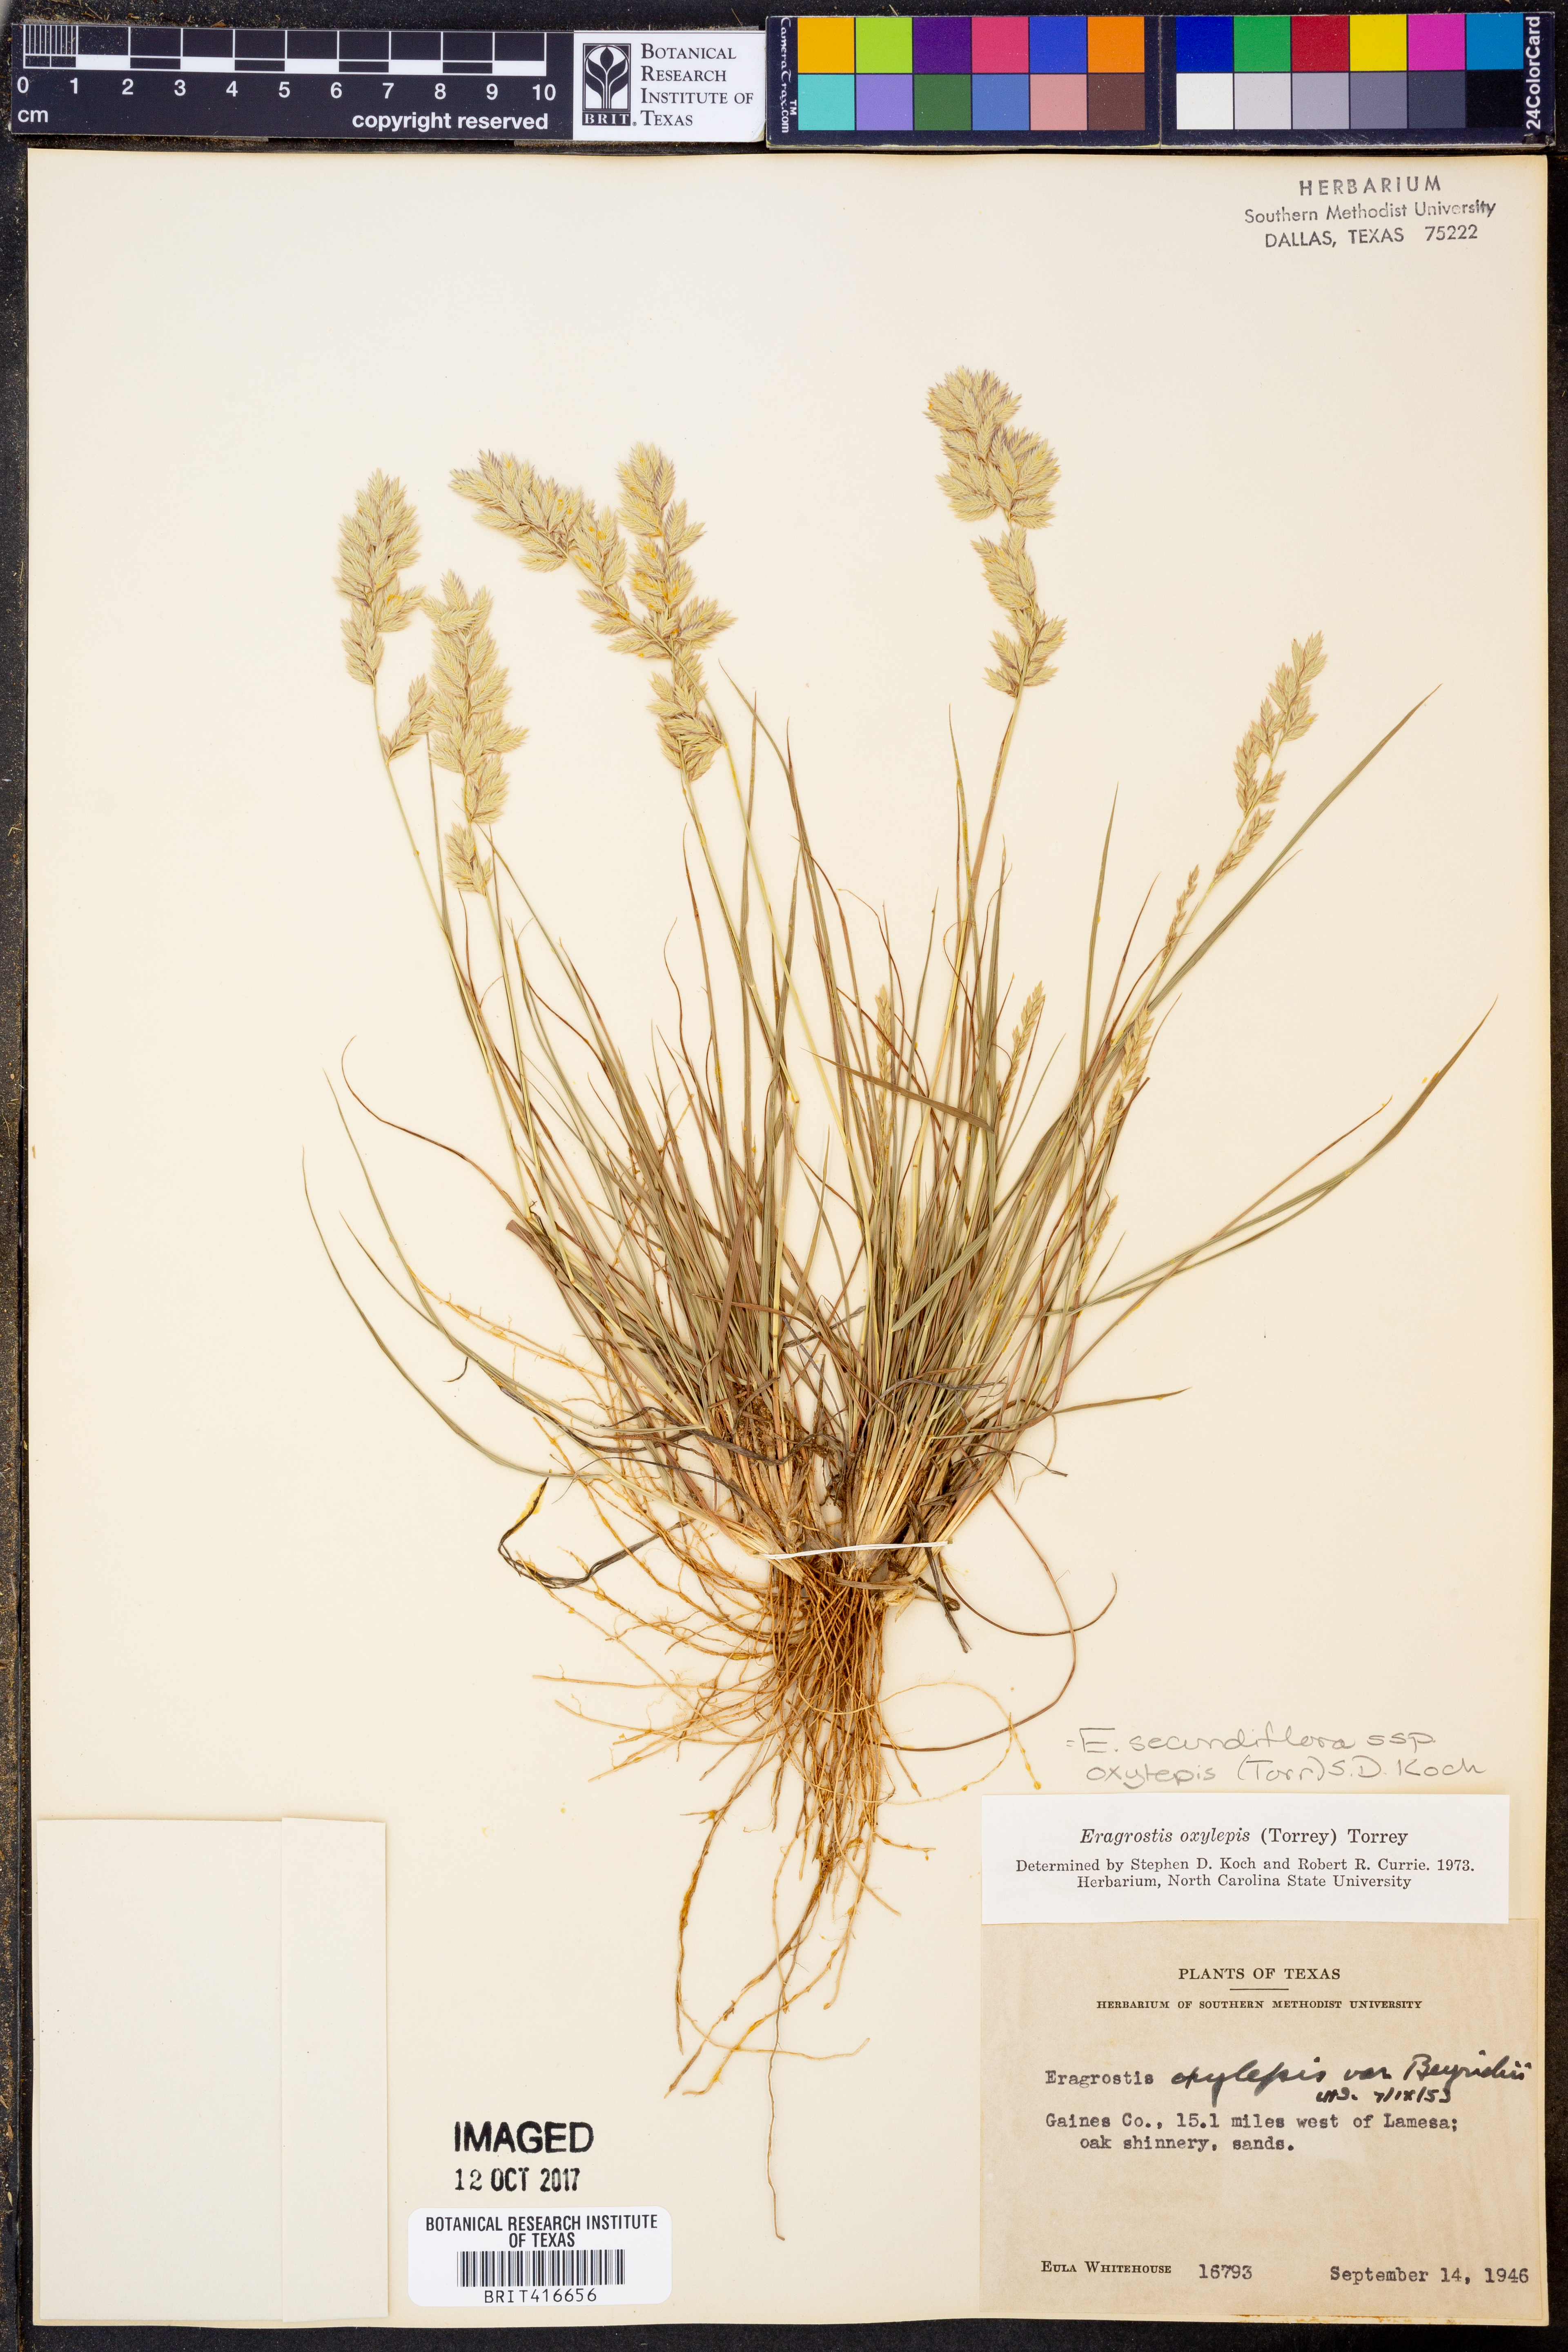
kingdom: Plantae
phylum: Tracheophyta
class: Liliopsida
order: Poales
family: Poaceae
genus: Eragrostis
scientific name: Eragrostis secundiflora
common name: Red love grass
